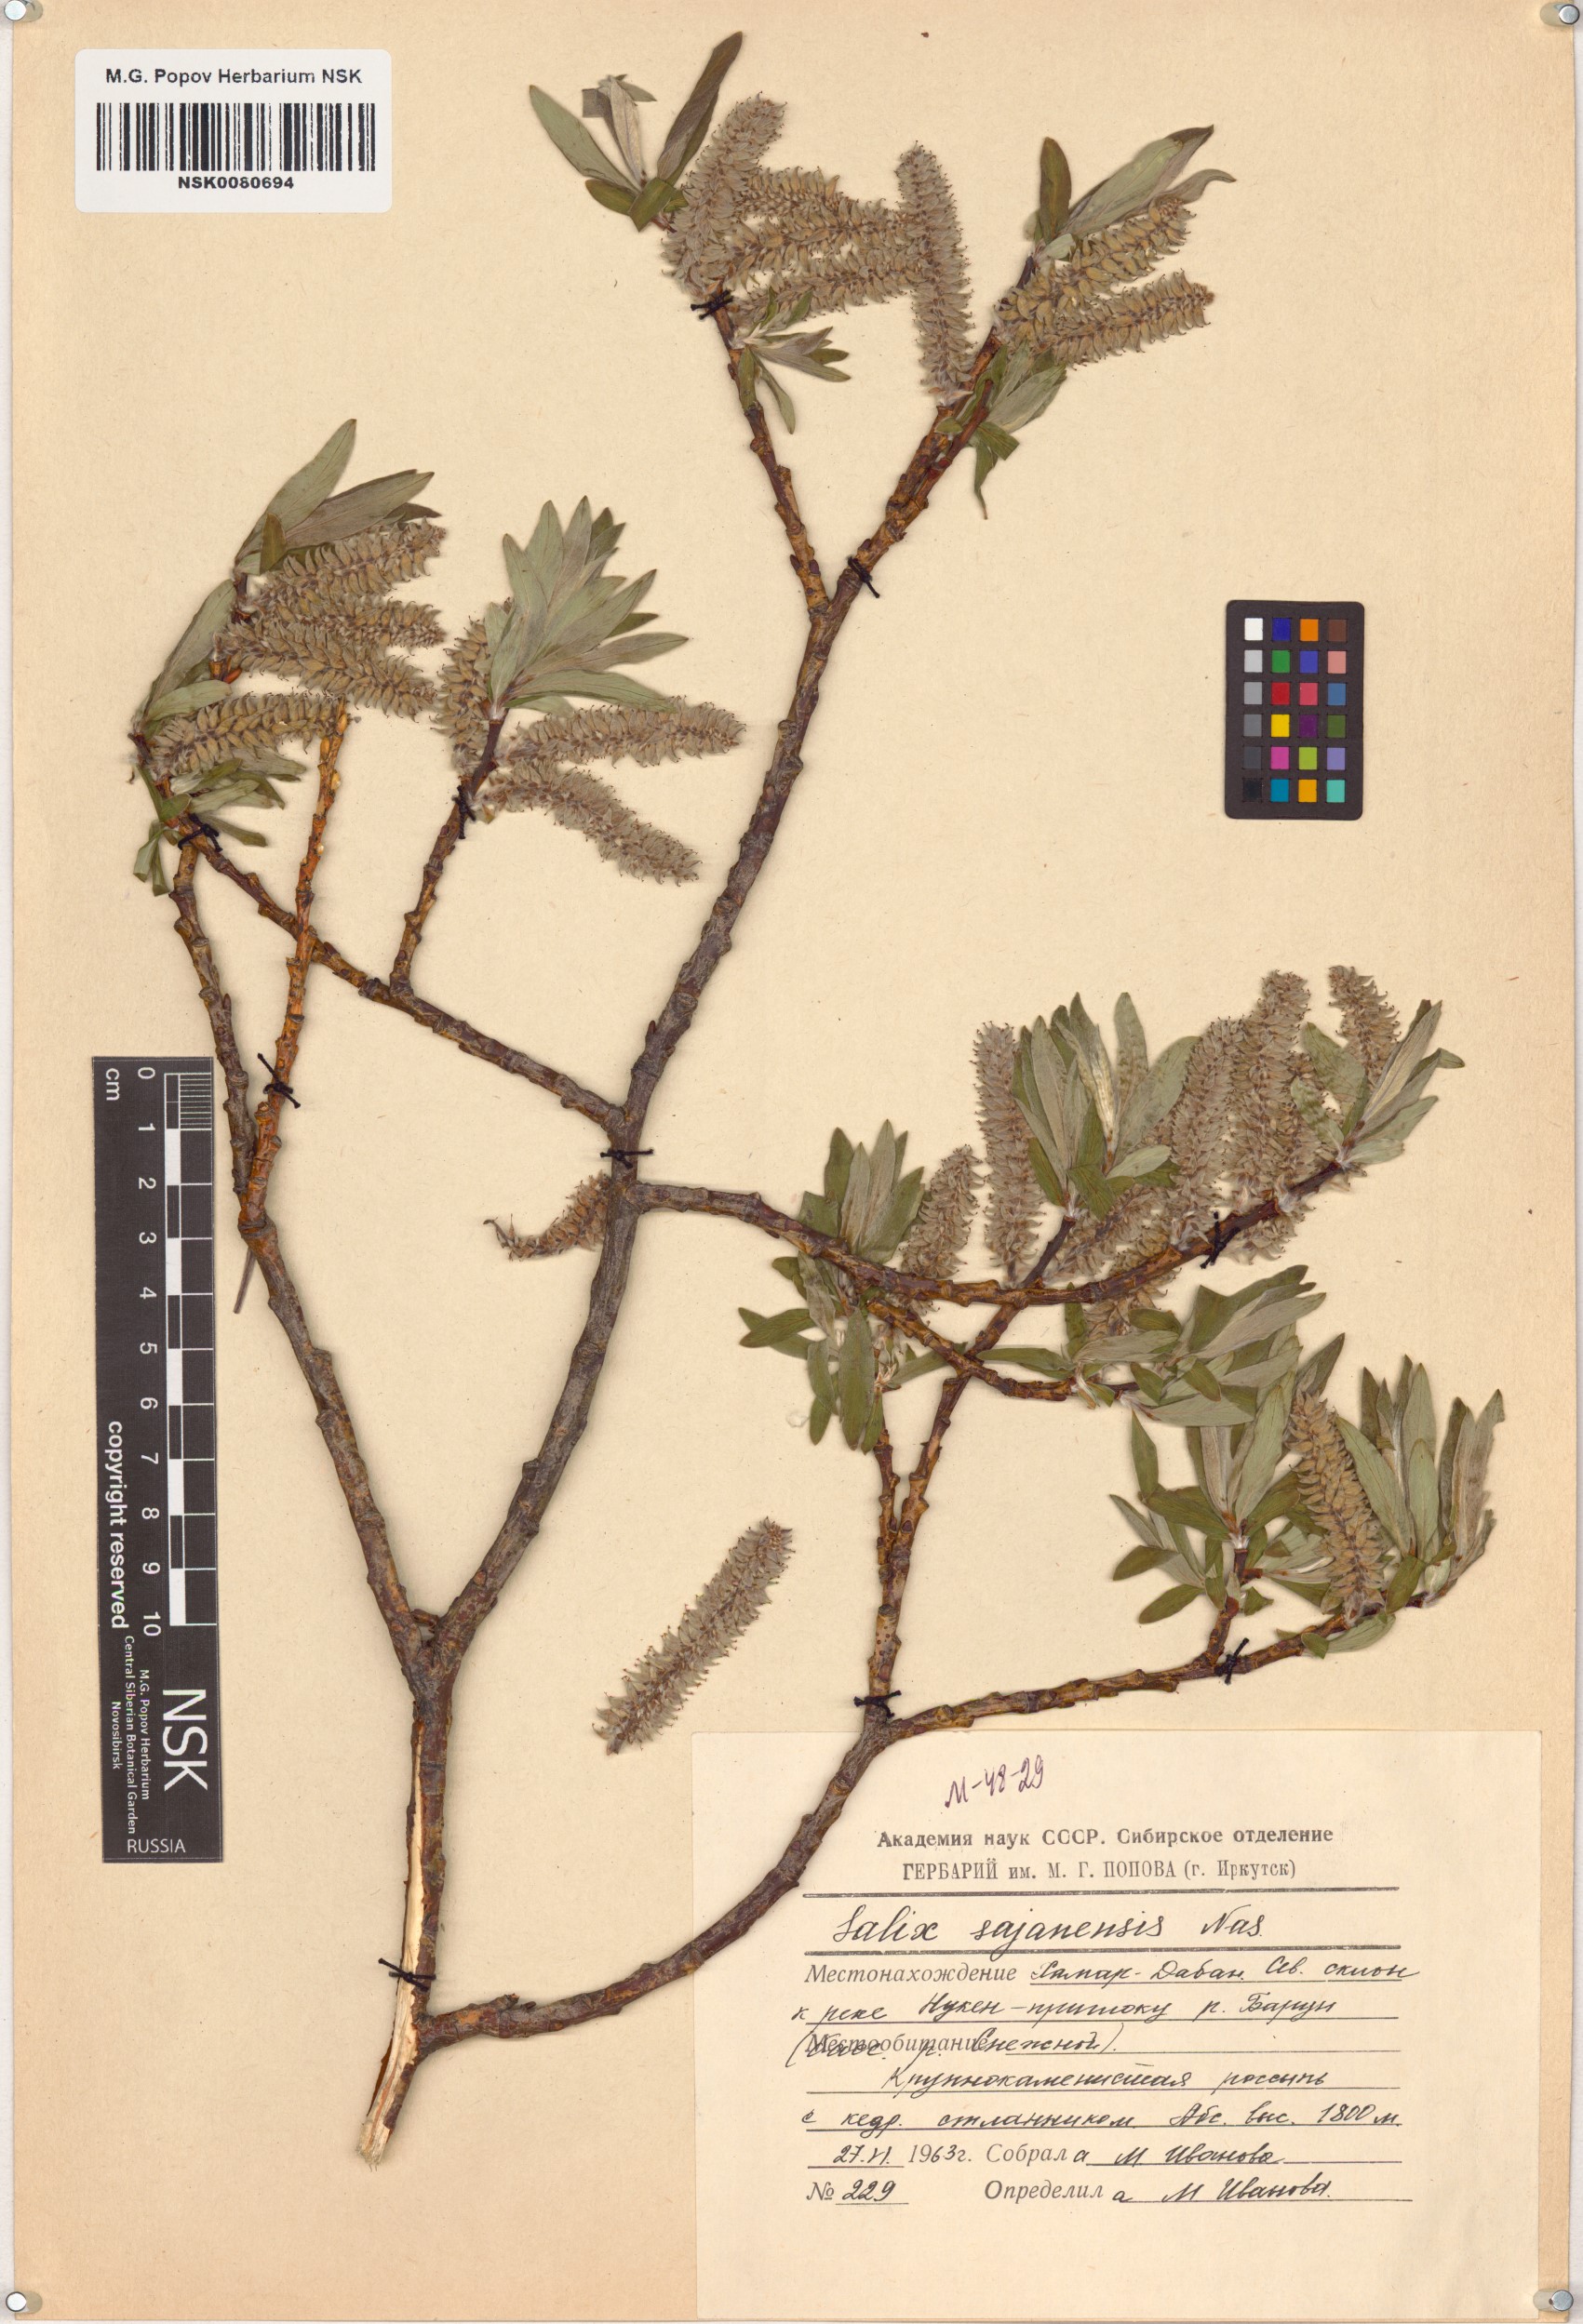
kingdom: Plantae
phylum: Tracheophyta
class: Magnoliopsida
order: Malpighiales
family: Salicaceae
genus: Salix
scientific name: Salix sajanensis
